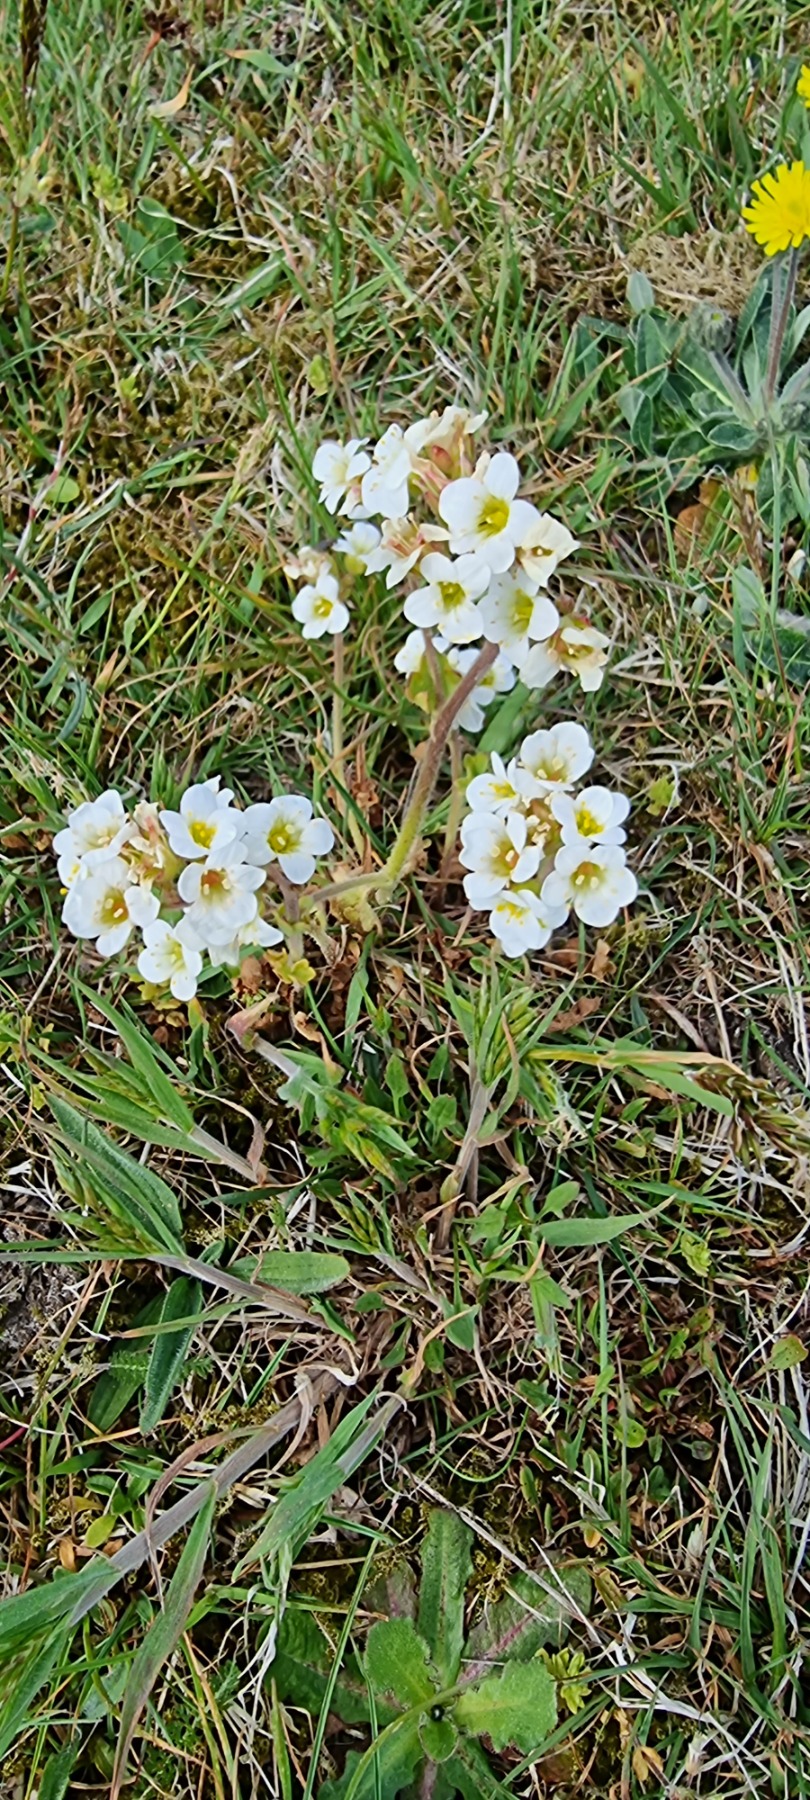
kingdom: Plantae
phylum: Tracheophyta
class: Magnoliopsida
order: Saxifragales
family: Saxifragaceae
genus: Saxifraga
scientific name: Saxifraga granulata
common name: Kornet stenbræk
